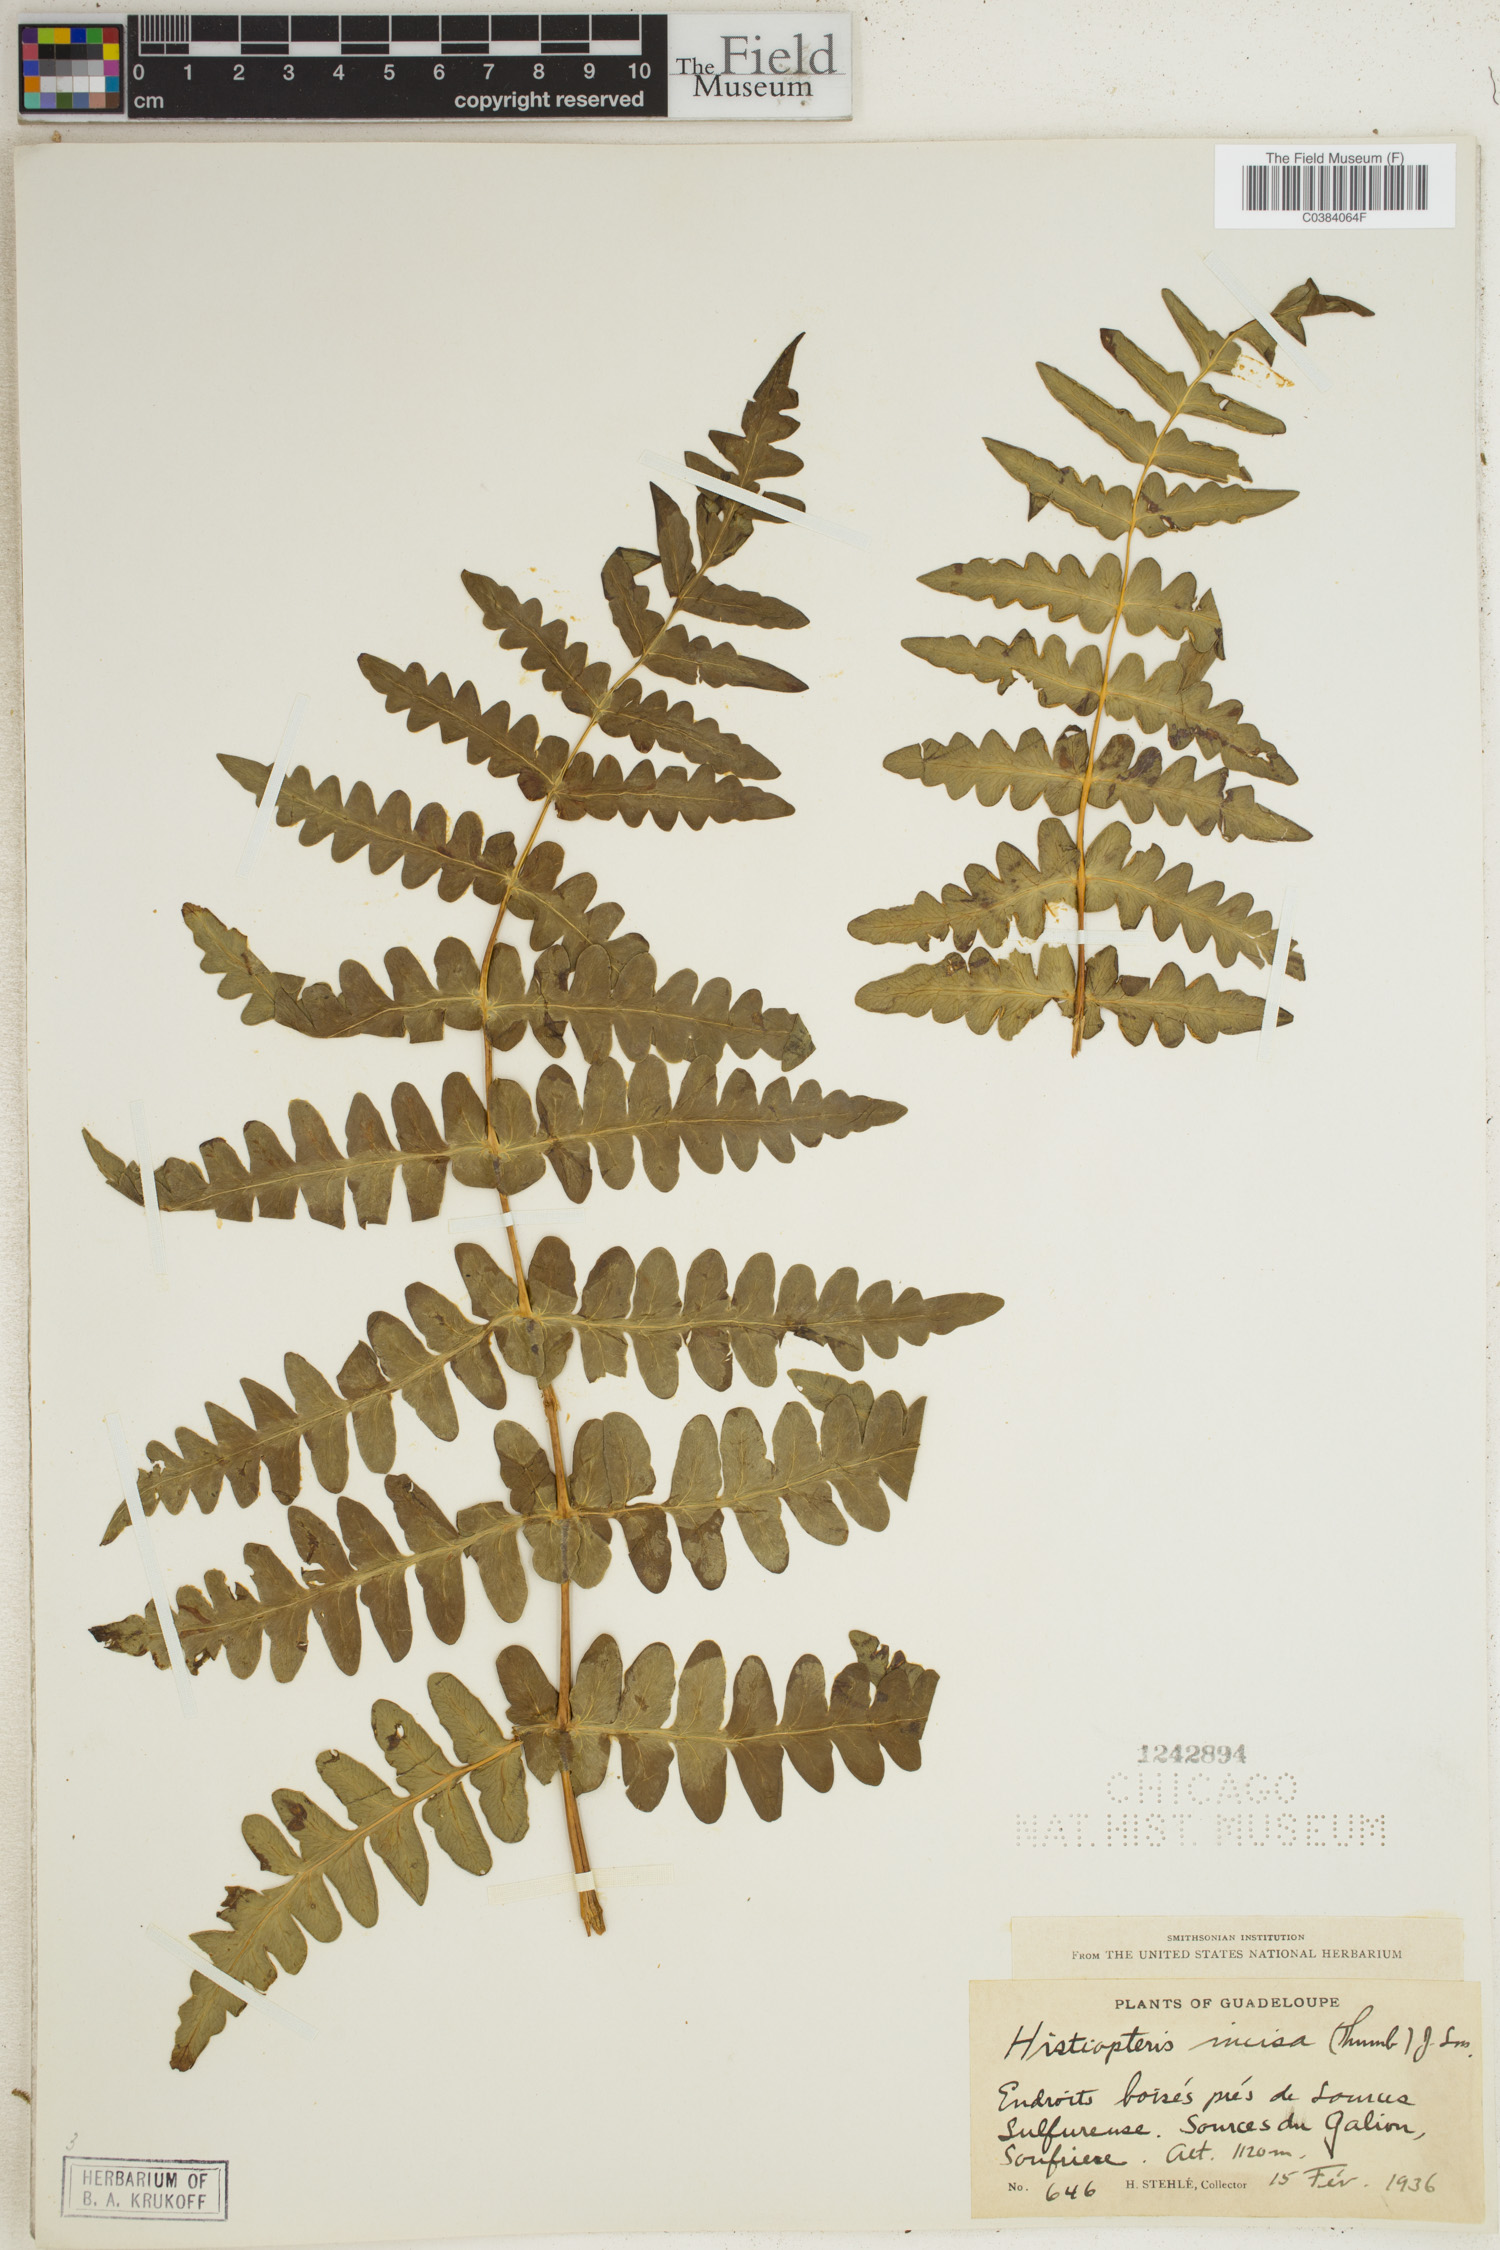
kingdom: Plantae
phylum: Tracheophyta
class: Polypodiopsida
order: Polypodiales
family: Dennstaedtiaceae
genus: Histiopteris
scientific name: Histiopteris incisa
